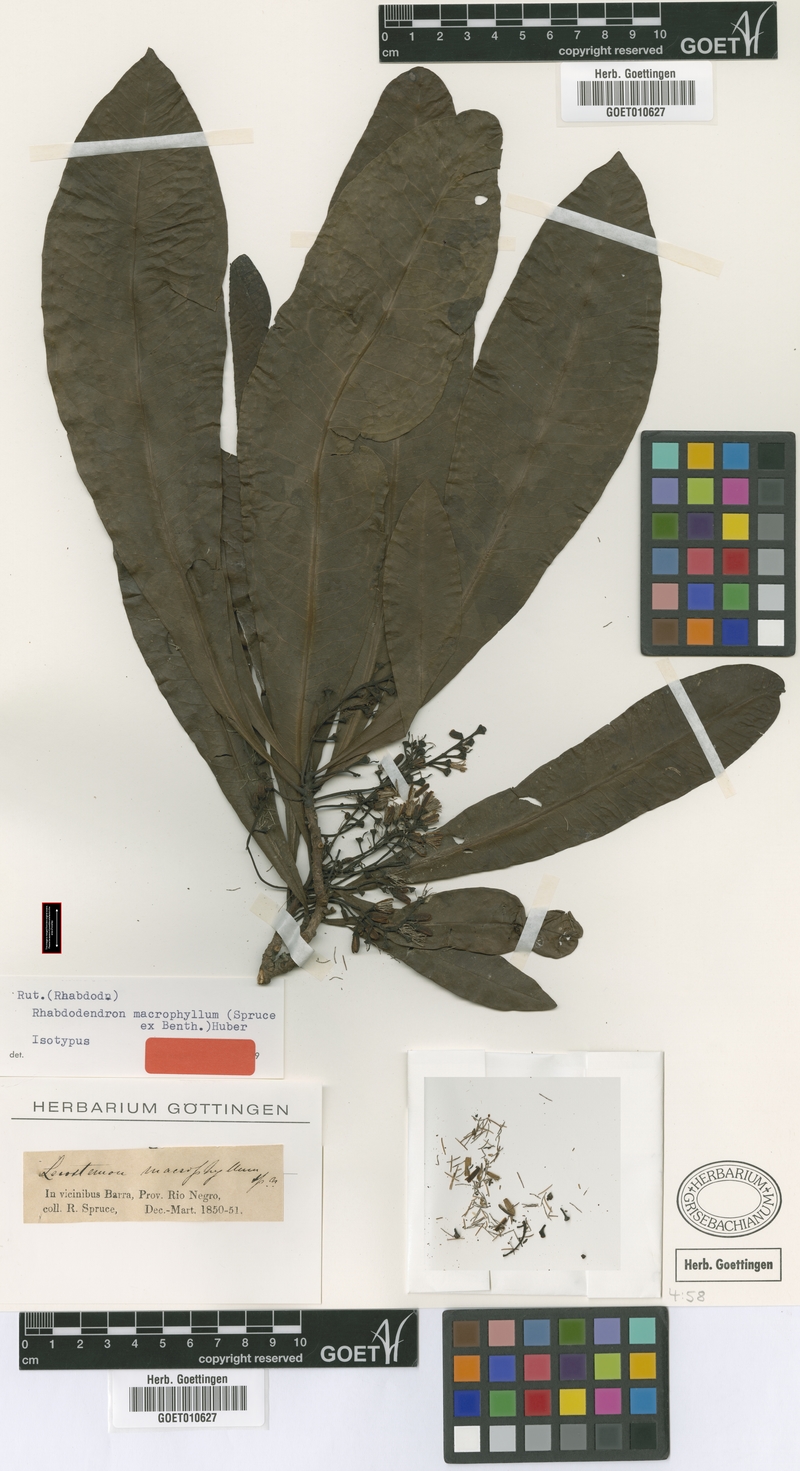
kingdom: Plantae
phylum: Tracheophyta
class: Magnoliopsida
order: Caryophyllales
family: Rhabdodendraceae
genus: Rhabdodendron
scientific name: Rhabdodendron macrophyllum
